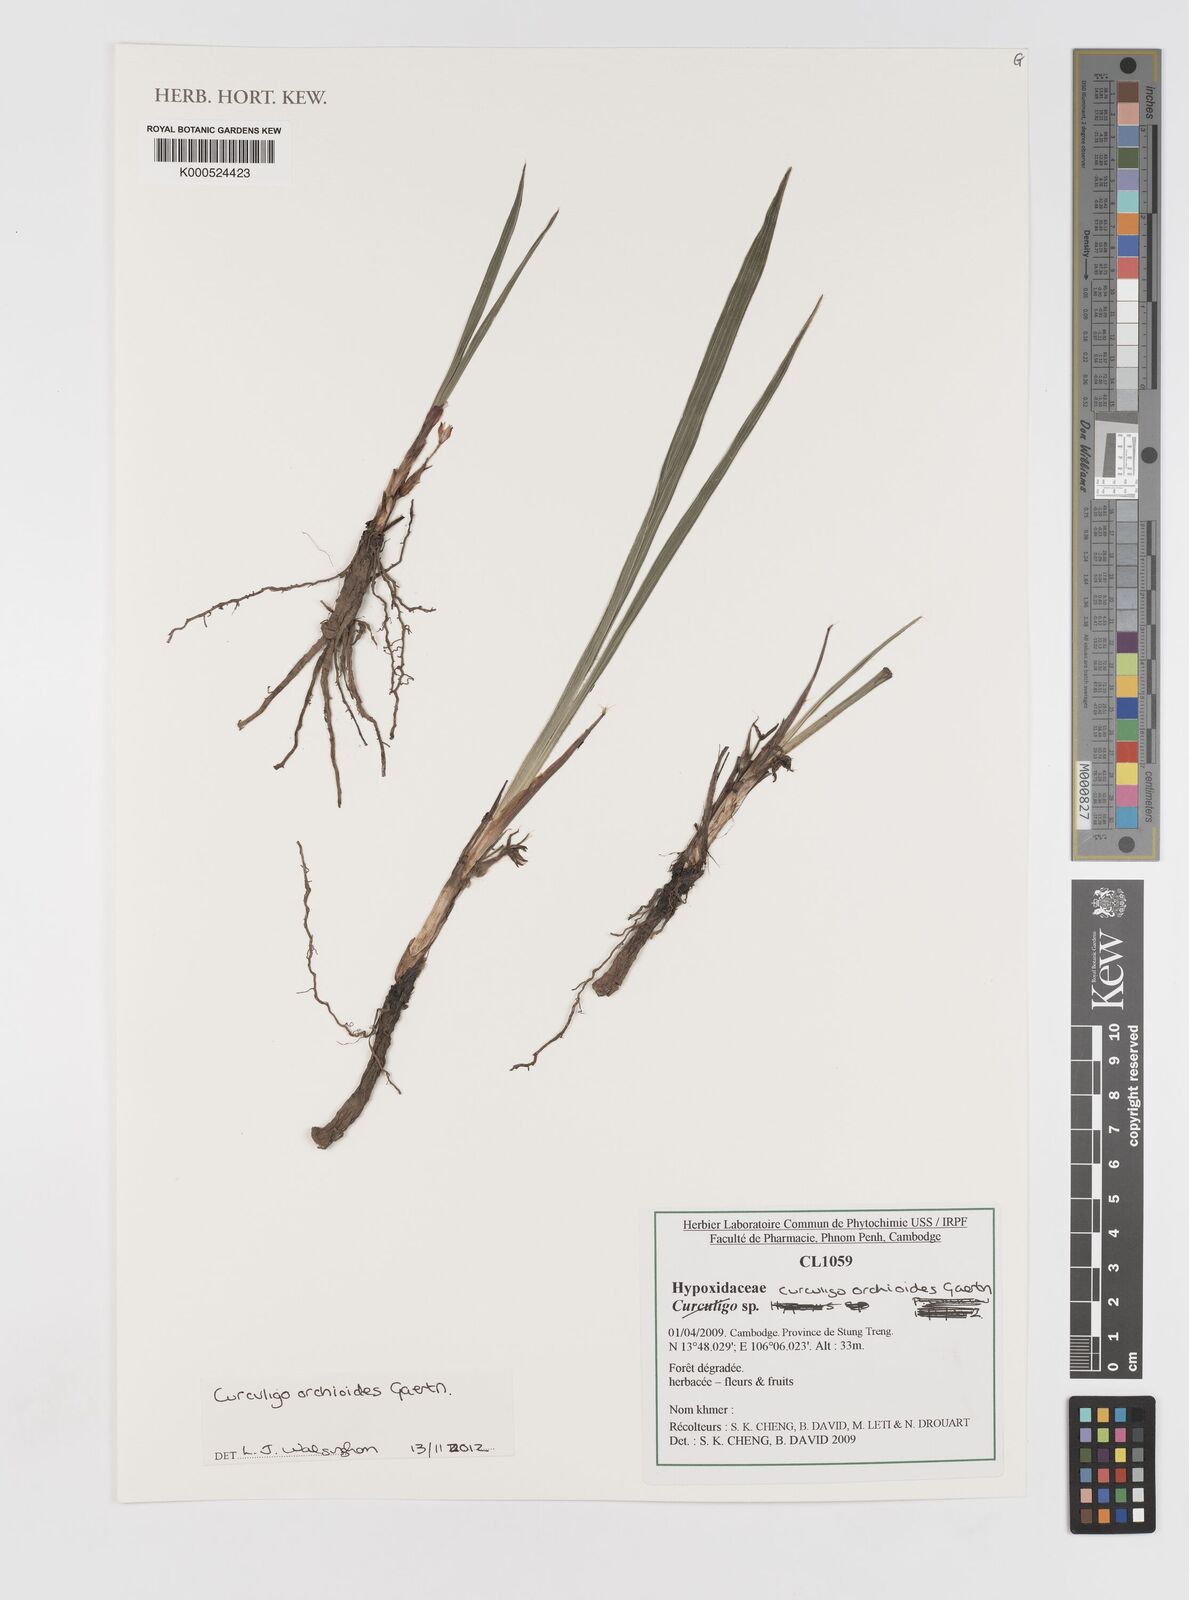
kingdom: Plantae
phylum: Tracheophyta
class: Liliopsida
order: Asparagales
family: Hypoxidaceae
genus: Curculigo
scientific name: Curculigo orchioides
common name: Golden eye-grass
